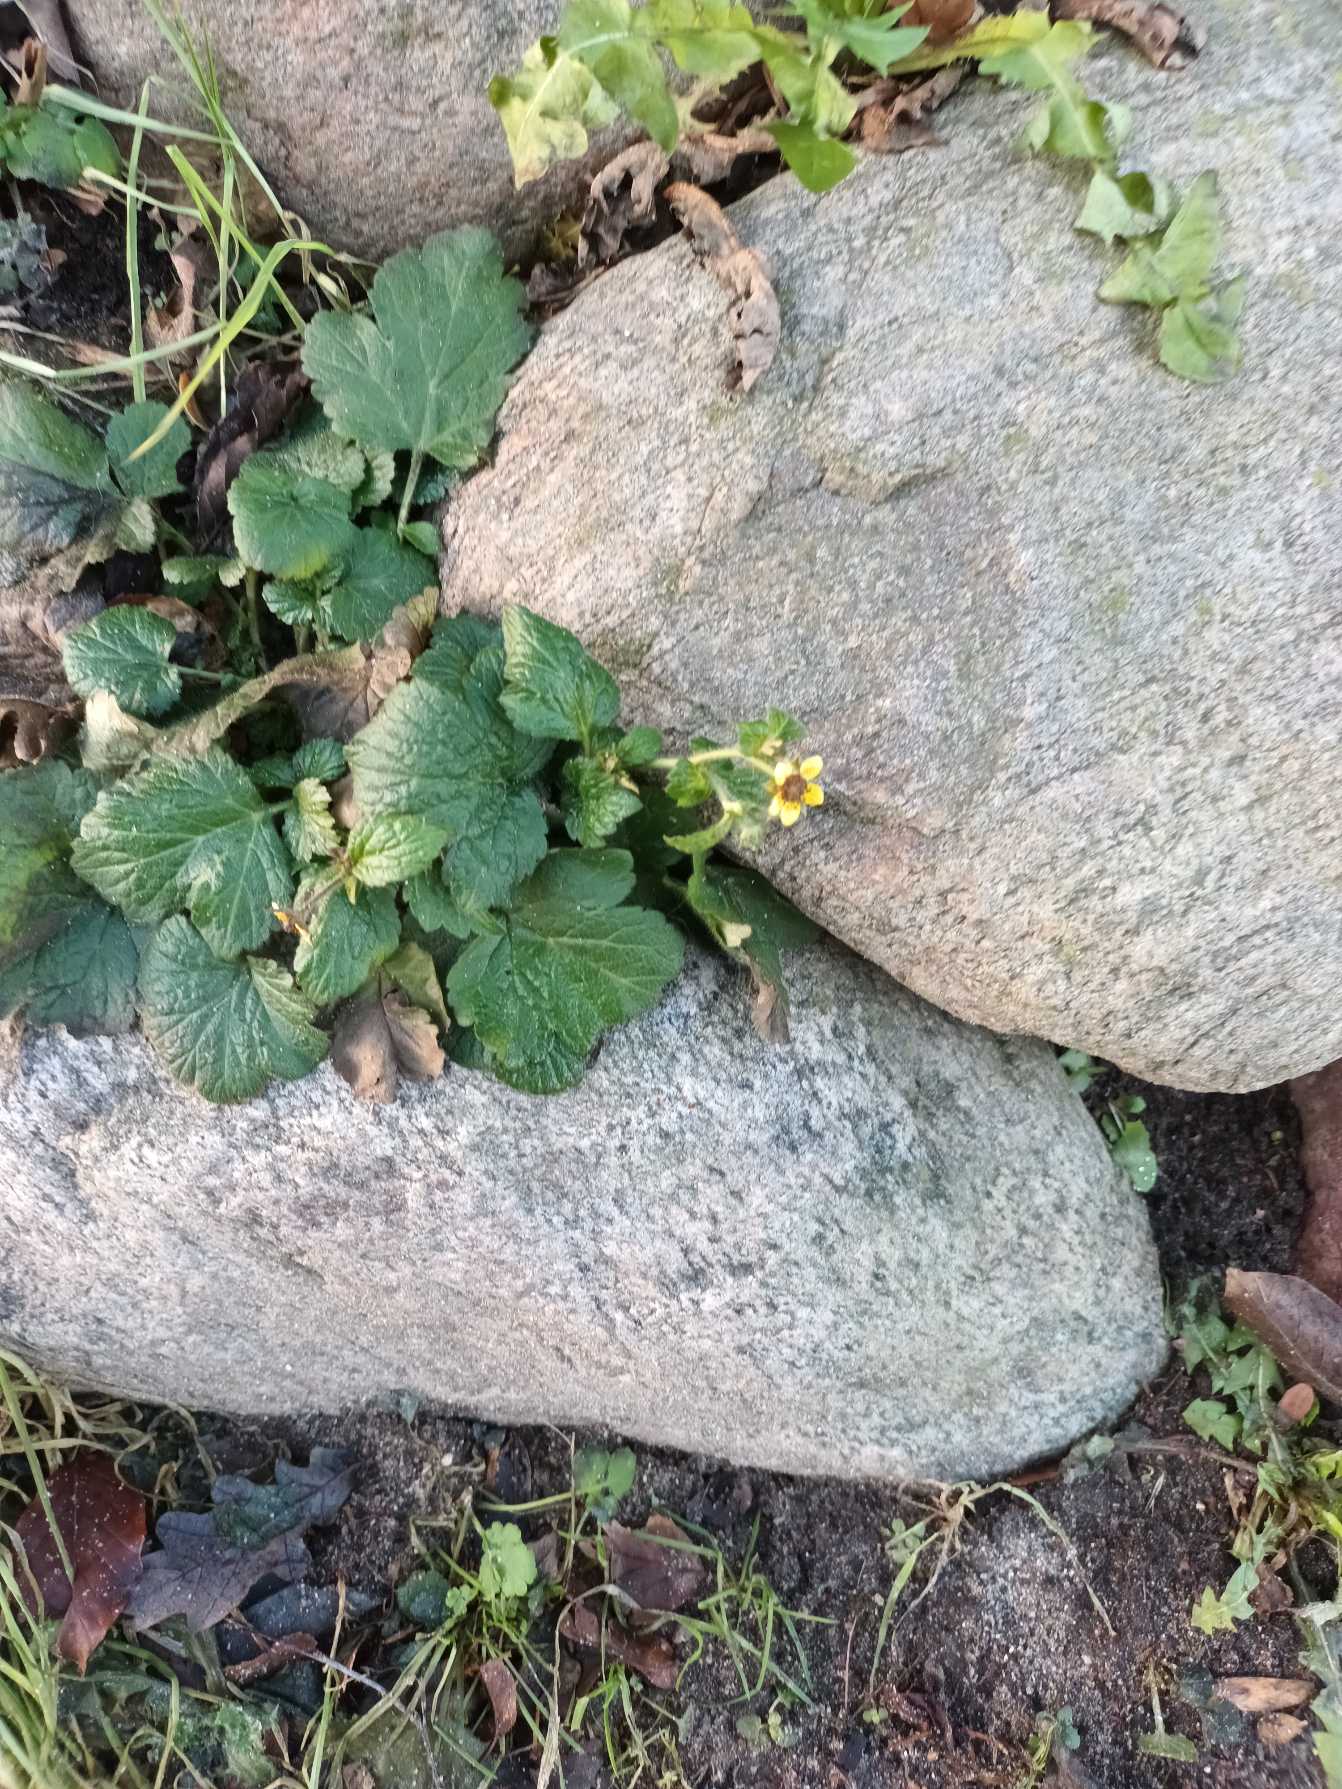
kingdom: Plantae
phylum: Tracheophyta
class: Magnoliopsida
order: Rosales
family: Rosaceae
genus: Geum
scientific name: Geum urbanum
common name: Feber-nellikerod
